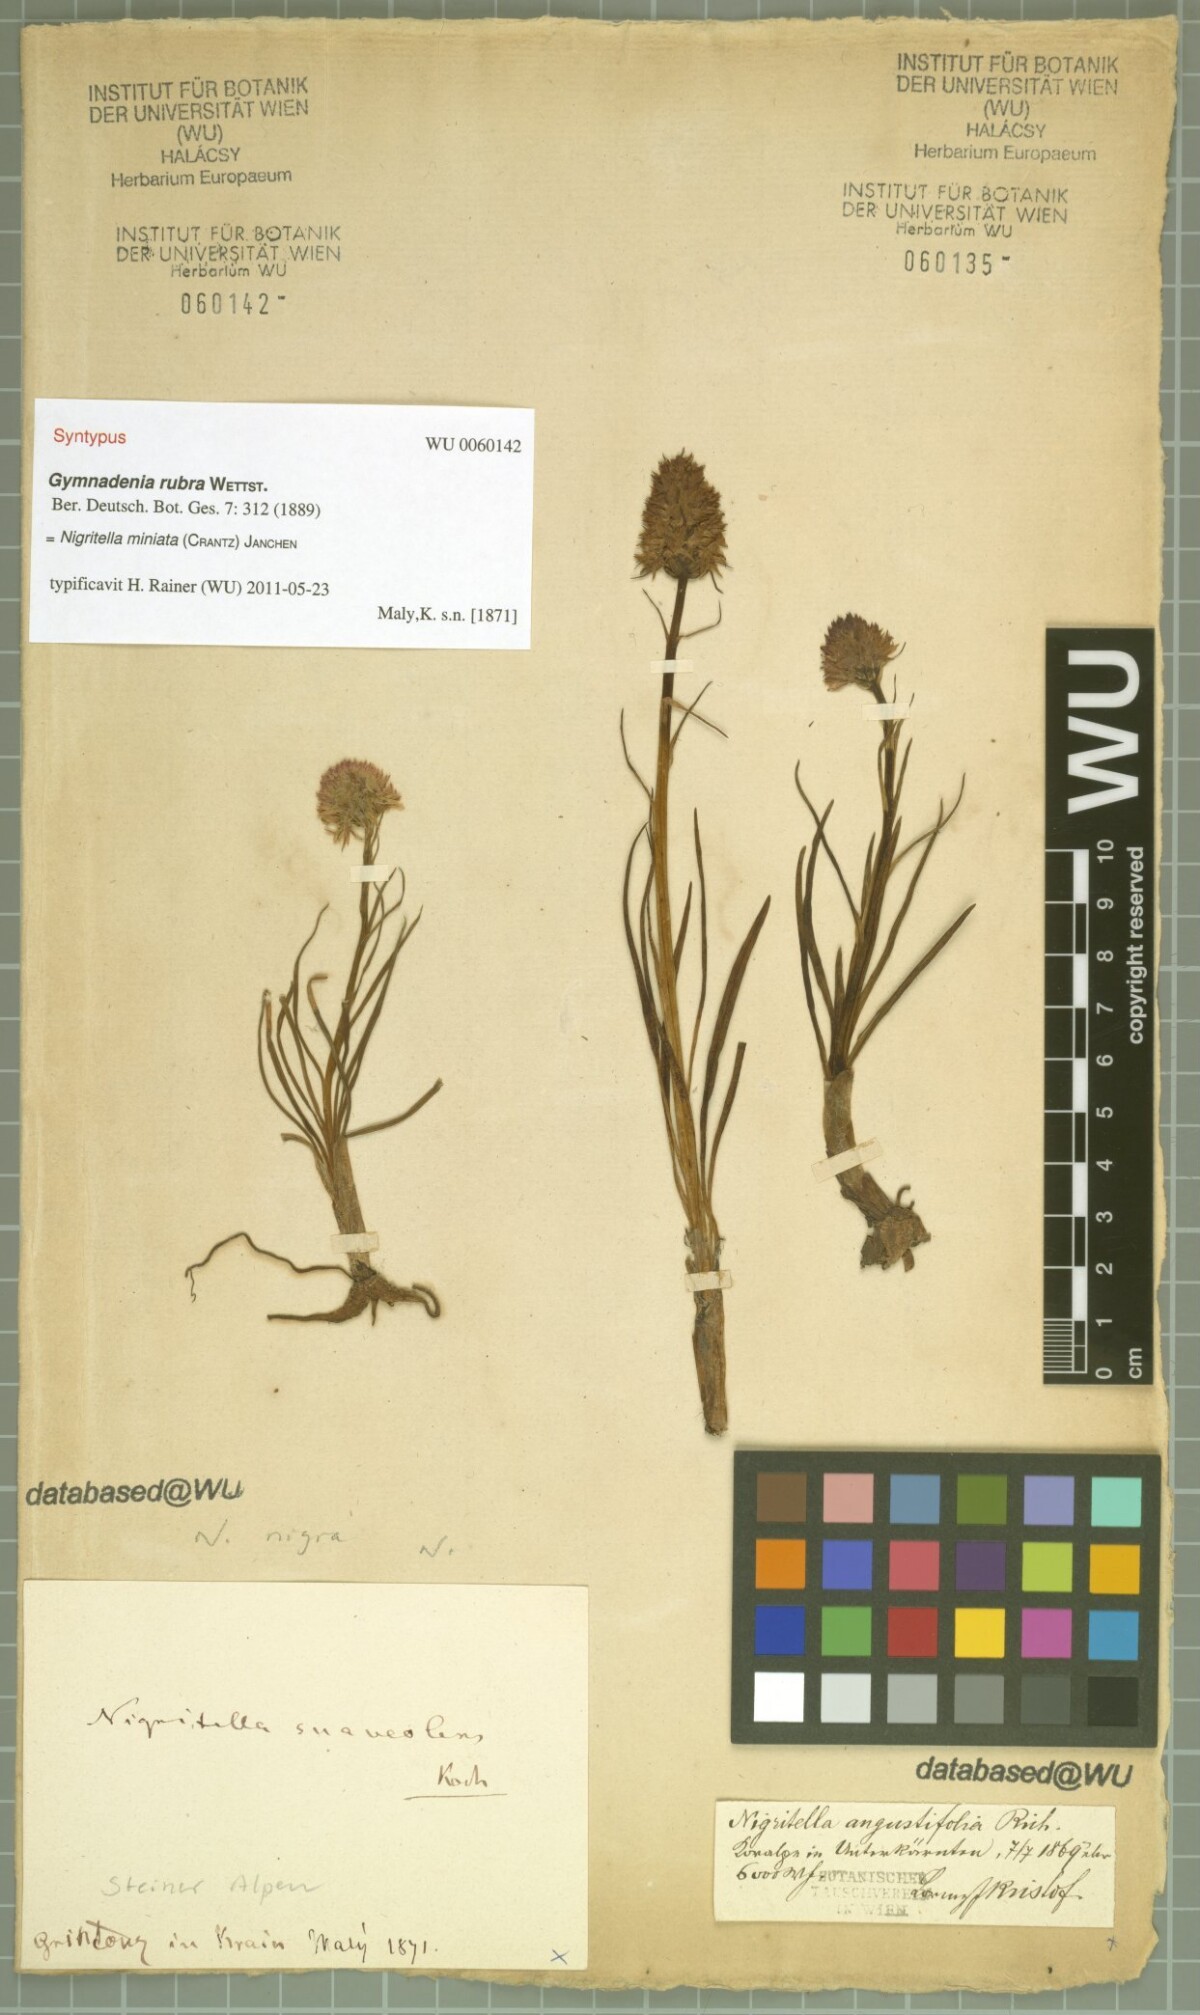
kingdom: Plantae
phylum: Tracheophyta
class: Liliopsida
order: Asparagales
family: Orchidaceae
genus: Gymnadenia
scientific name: Gymnadenia miniata
